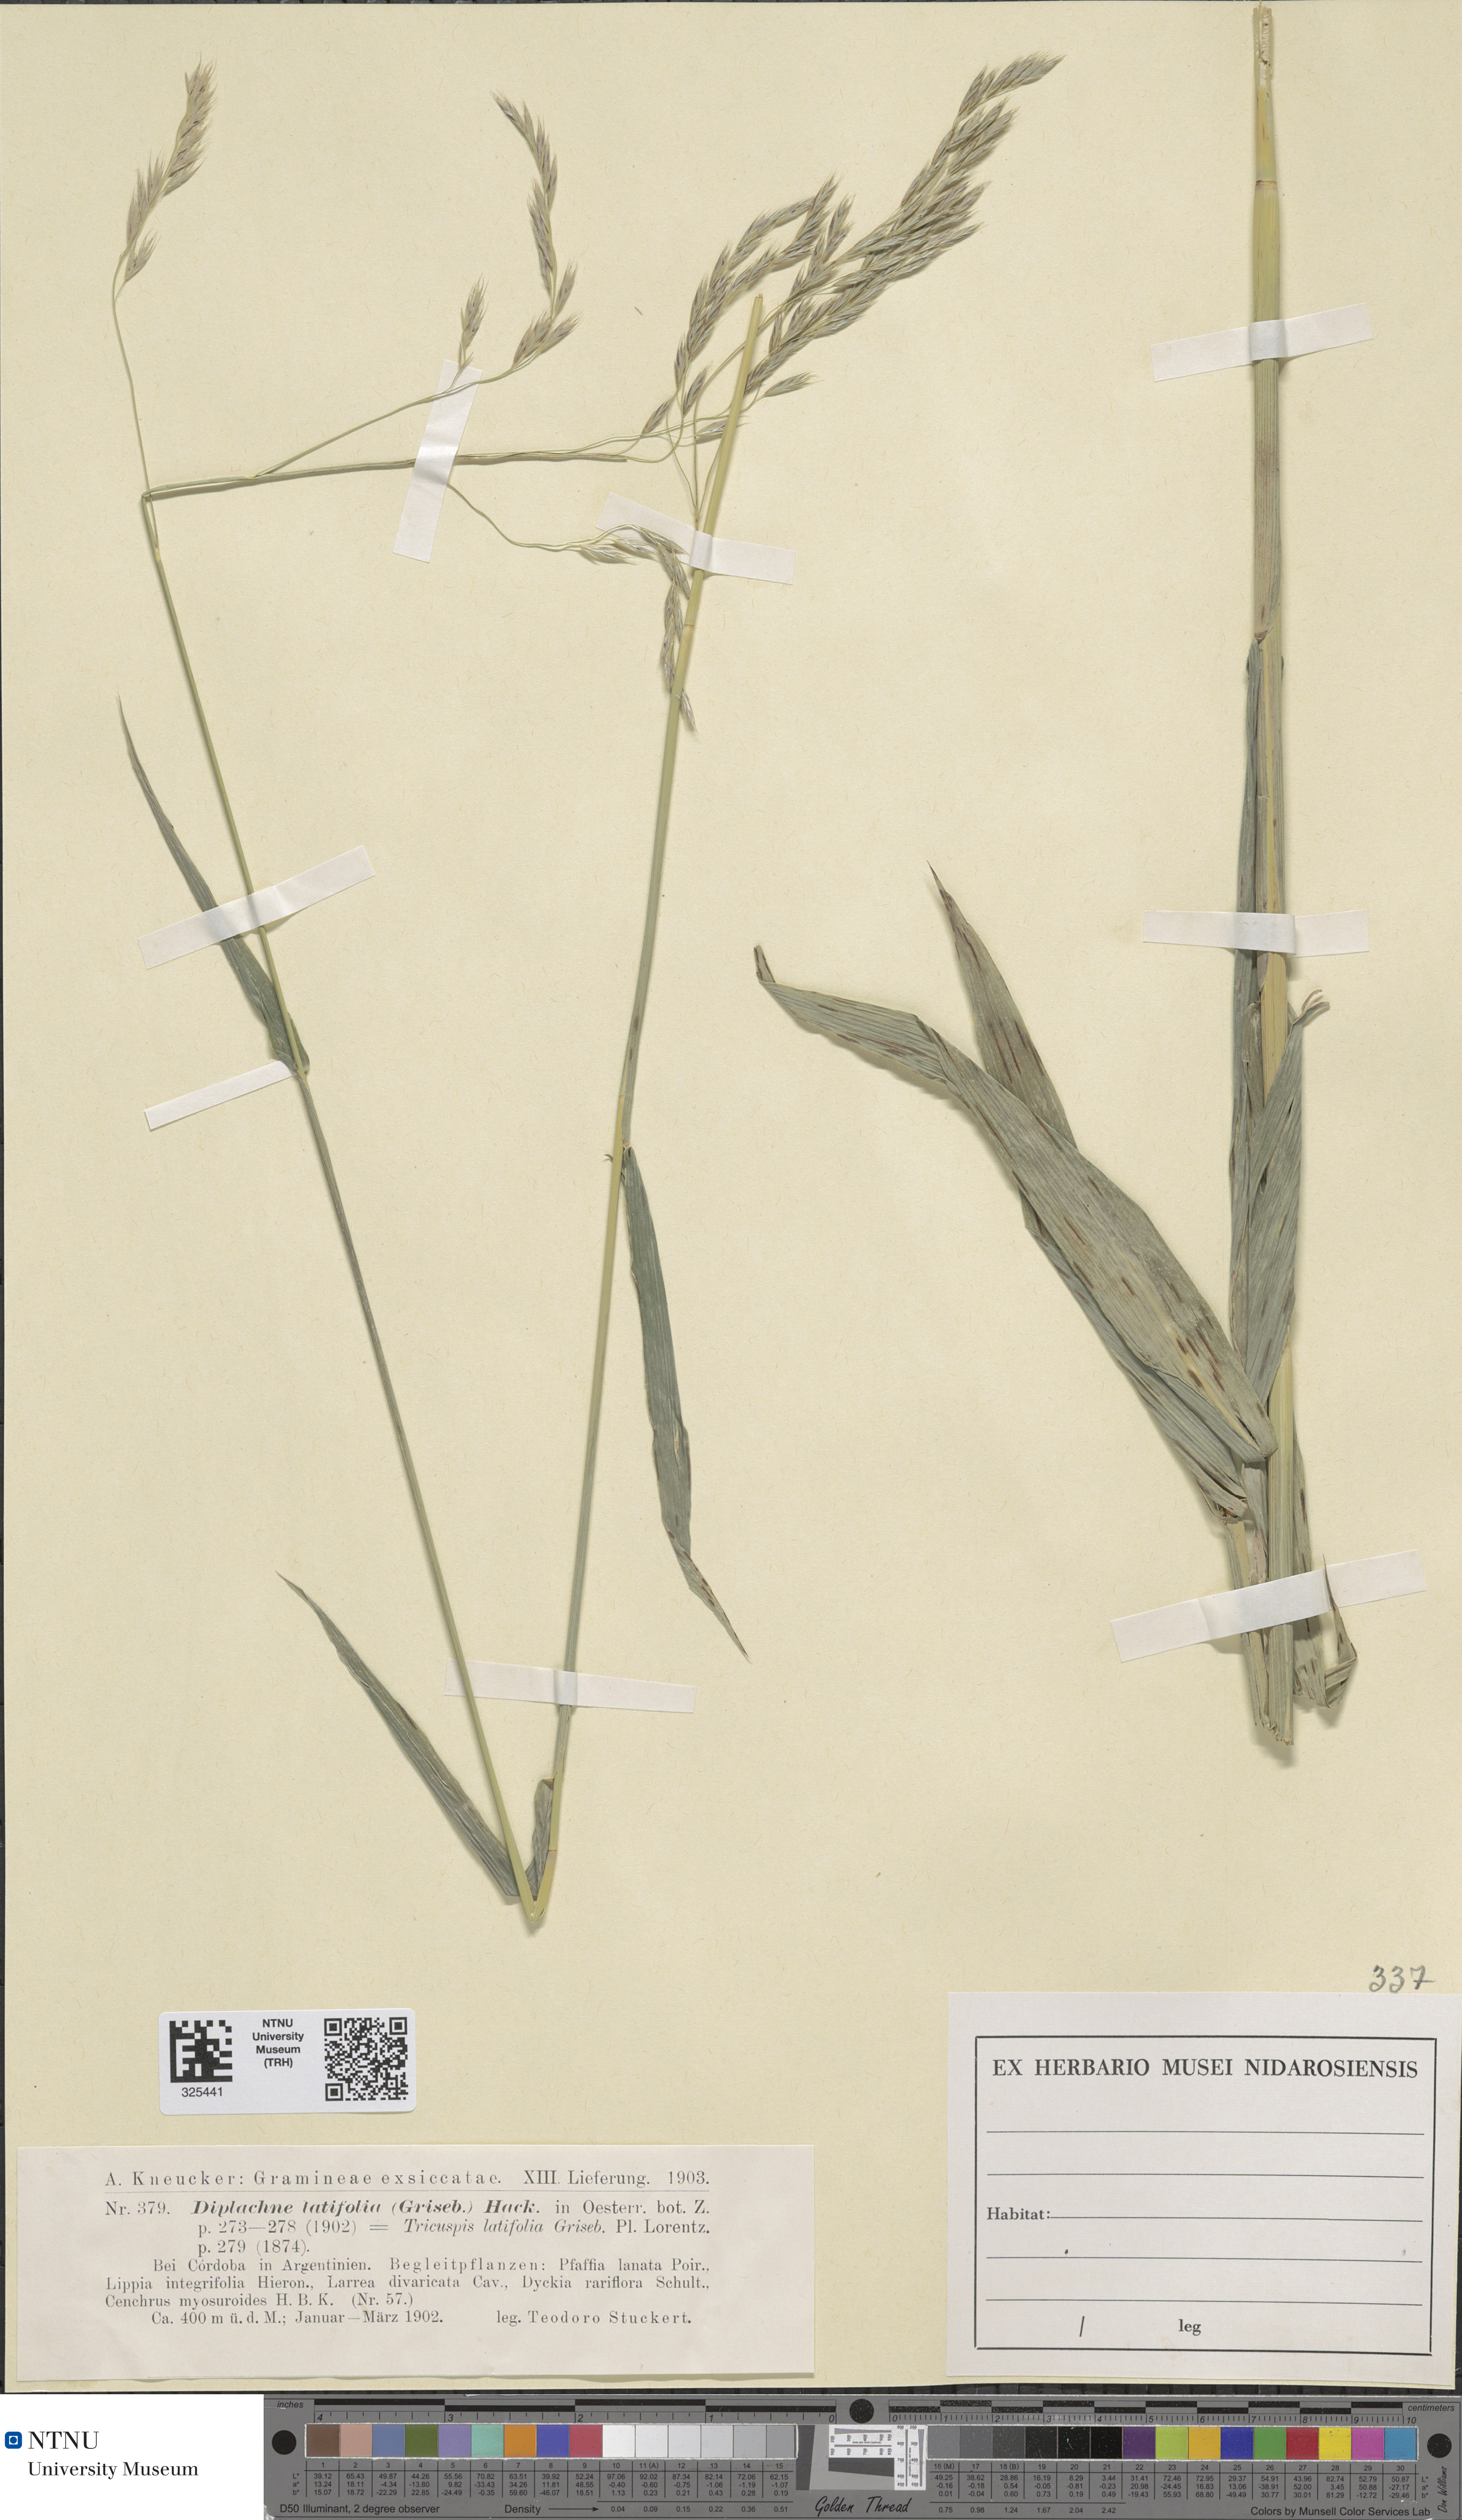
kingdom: Plantae
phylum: Tracheophyta
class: Liliopsida
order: Poales
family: Poaceae
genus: Gouinia
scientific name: Gouinia latifolia
